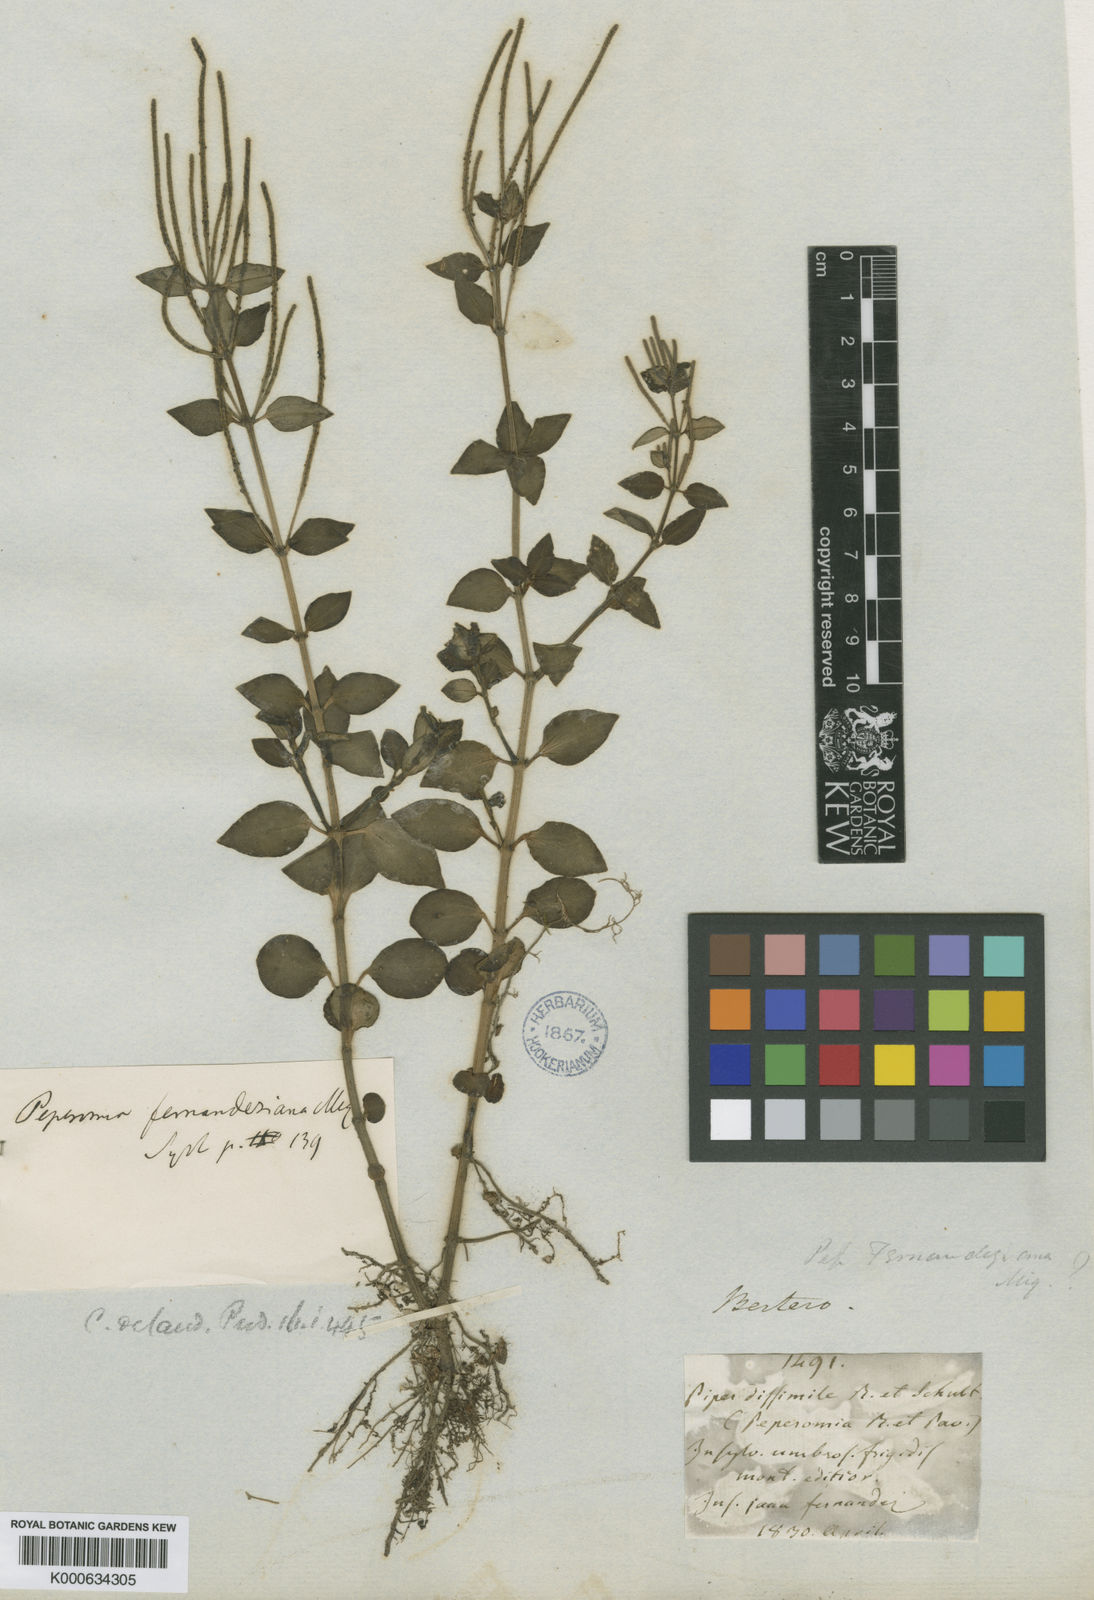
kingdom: Plantae
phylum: Tracheophyta
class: Magnoliopsida
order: Piperales
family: Piperaceae
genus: Peperomia
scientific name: Peperomia fernandeziana
